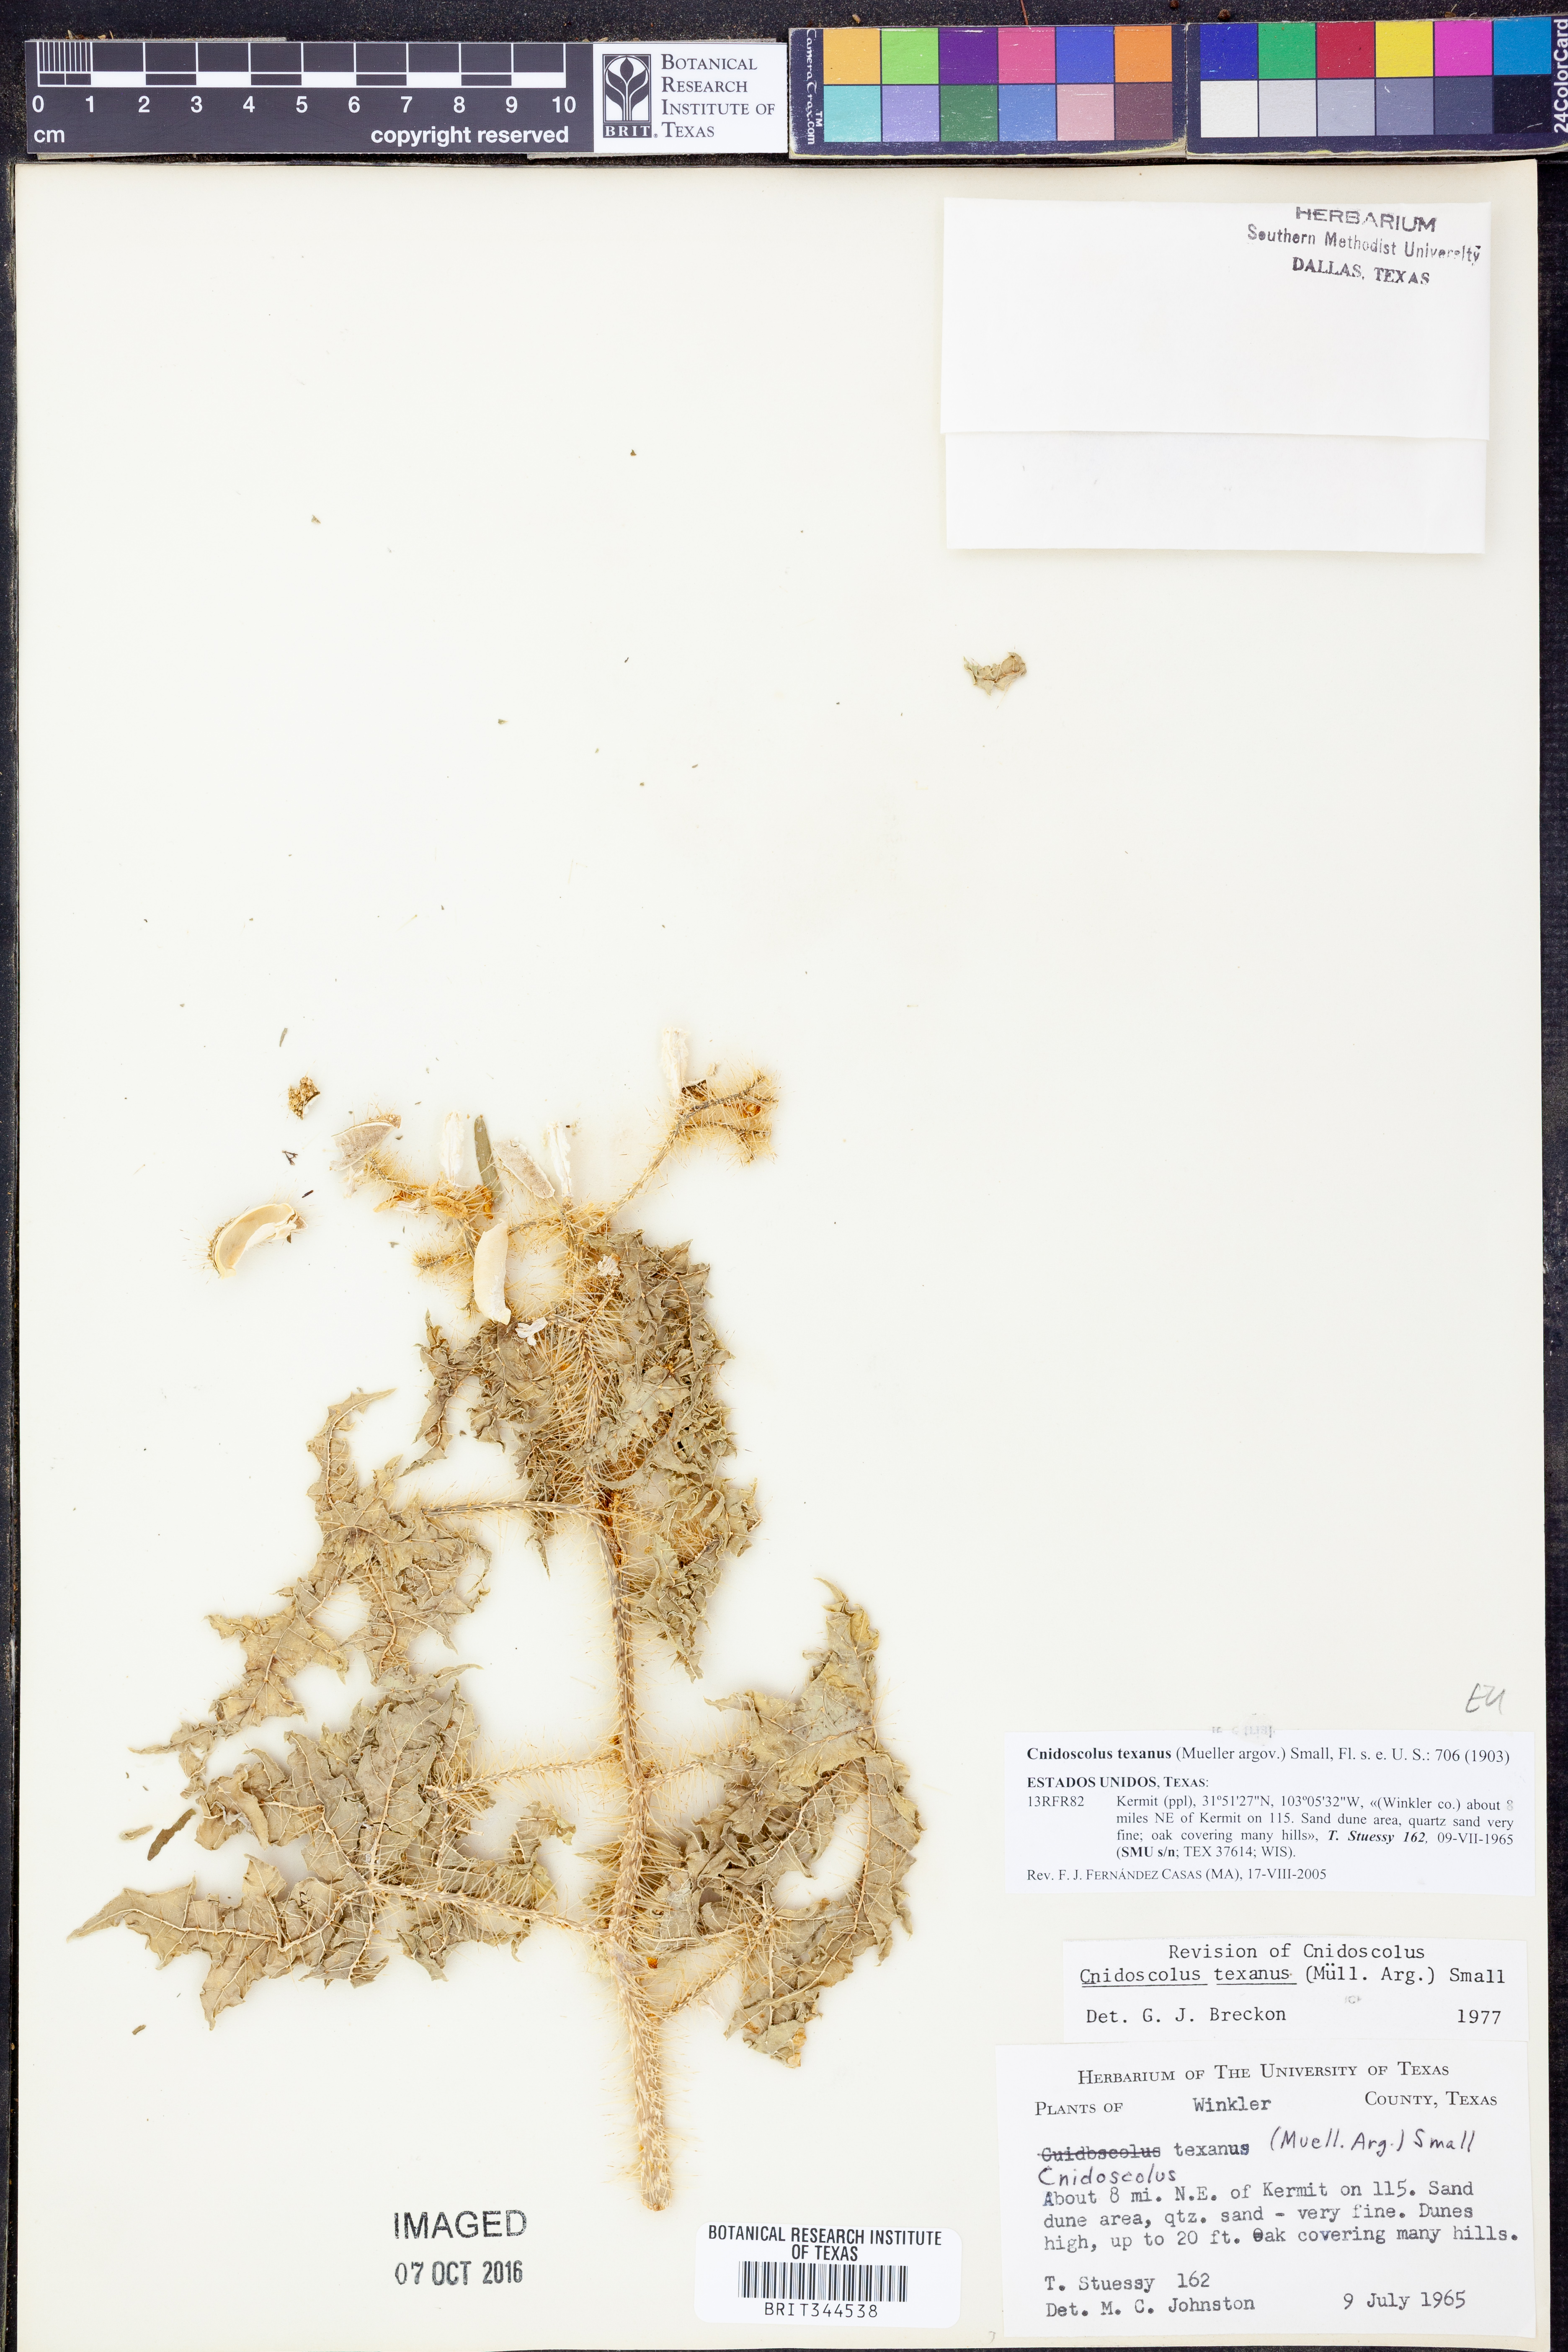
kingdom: Plantae
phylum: Tracheophyta
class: Magnoliopsida
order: Malpighiales
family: Euphorbiaceae
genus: Cnidoscolus
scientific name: Cnidoscolus texanus
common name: Texas bull-nettle
